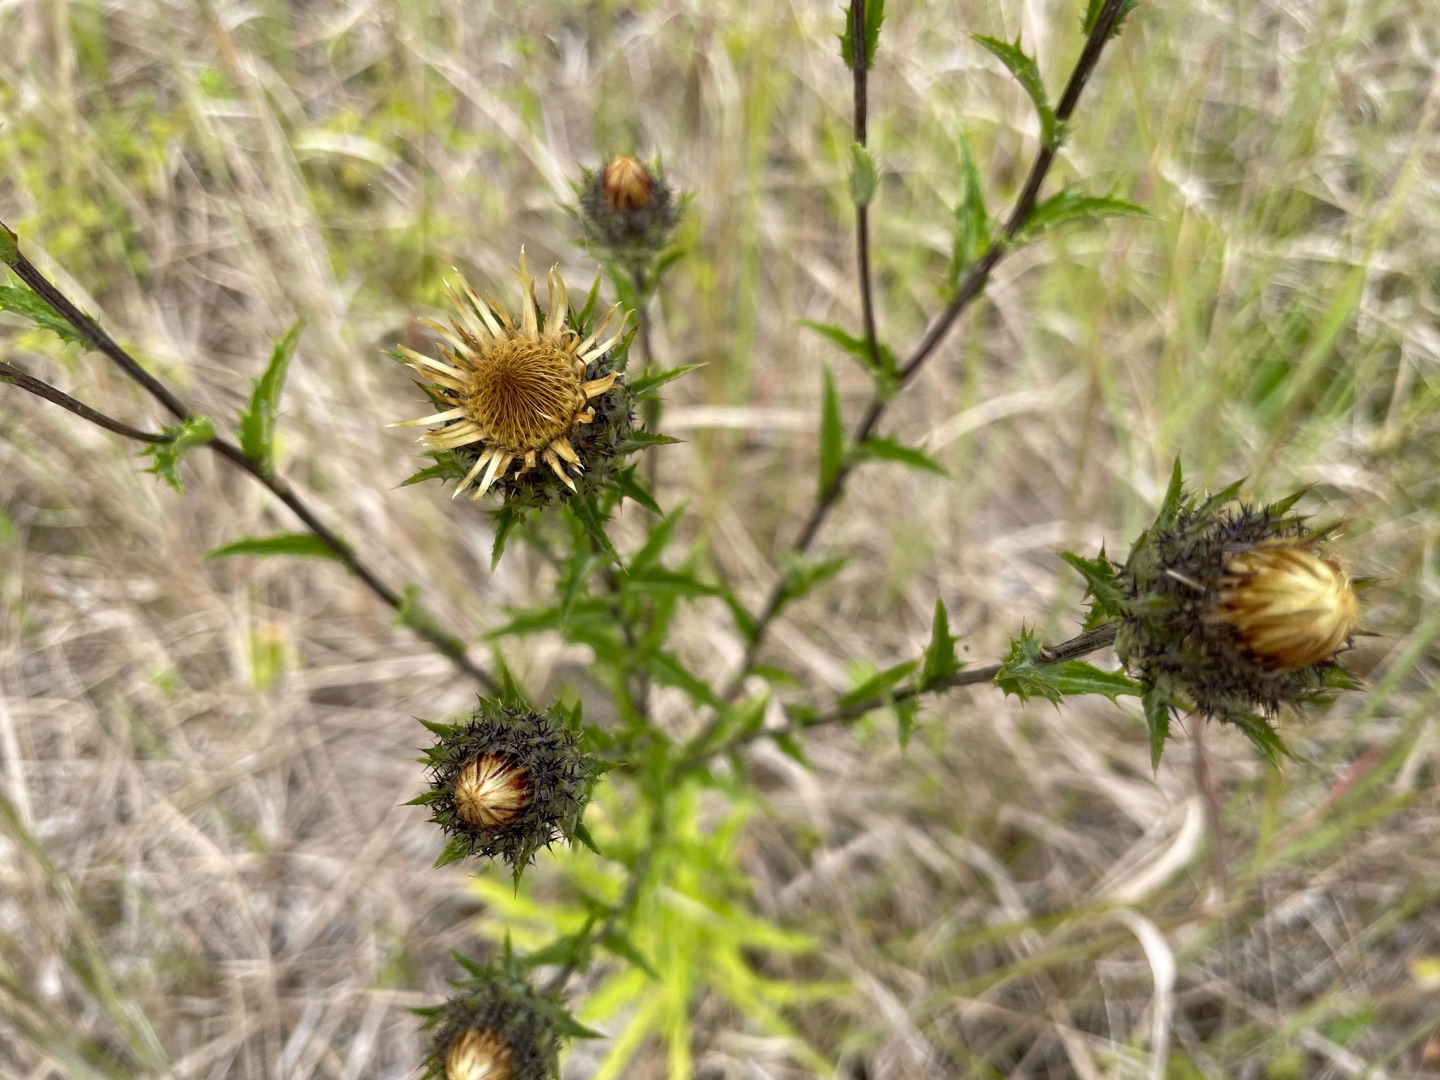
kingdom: Plantae
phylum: Tracheophyta
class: Magnoliopsida
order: Asterales
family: Asteraceae
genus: Carlina
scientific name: Carlina vulgaris
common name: Bakketidsel
